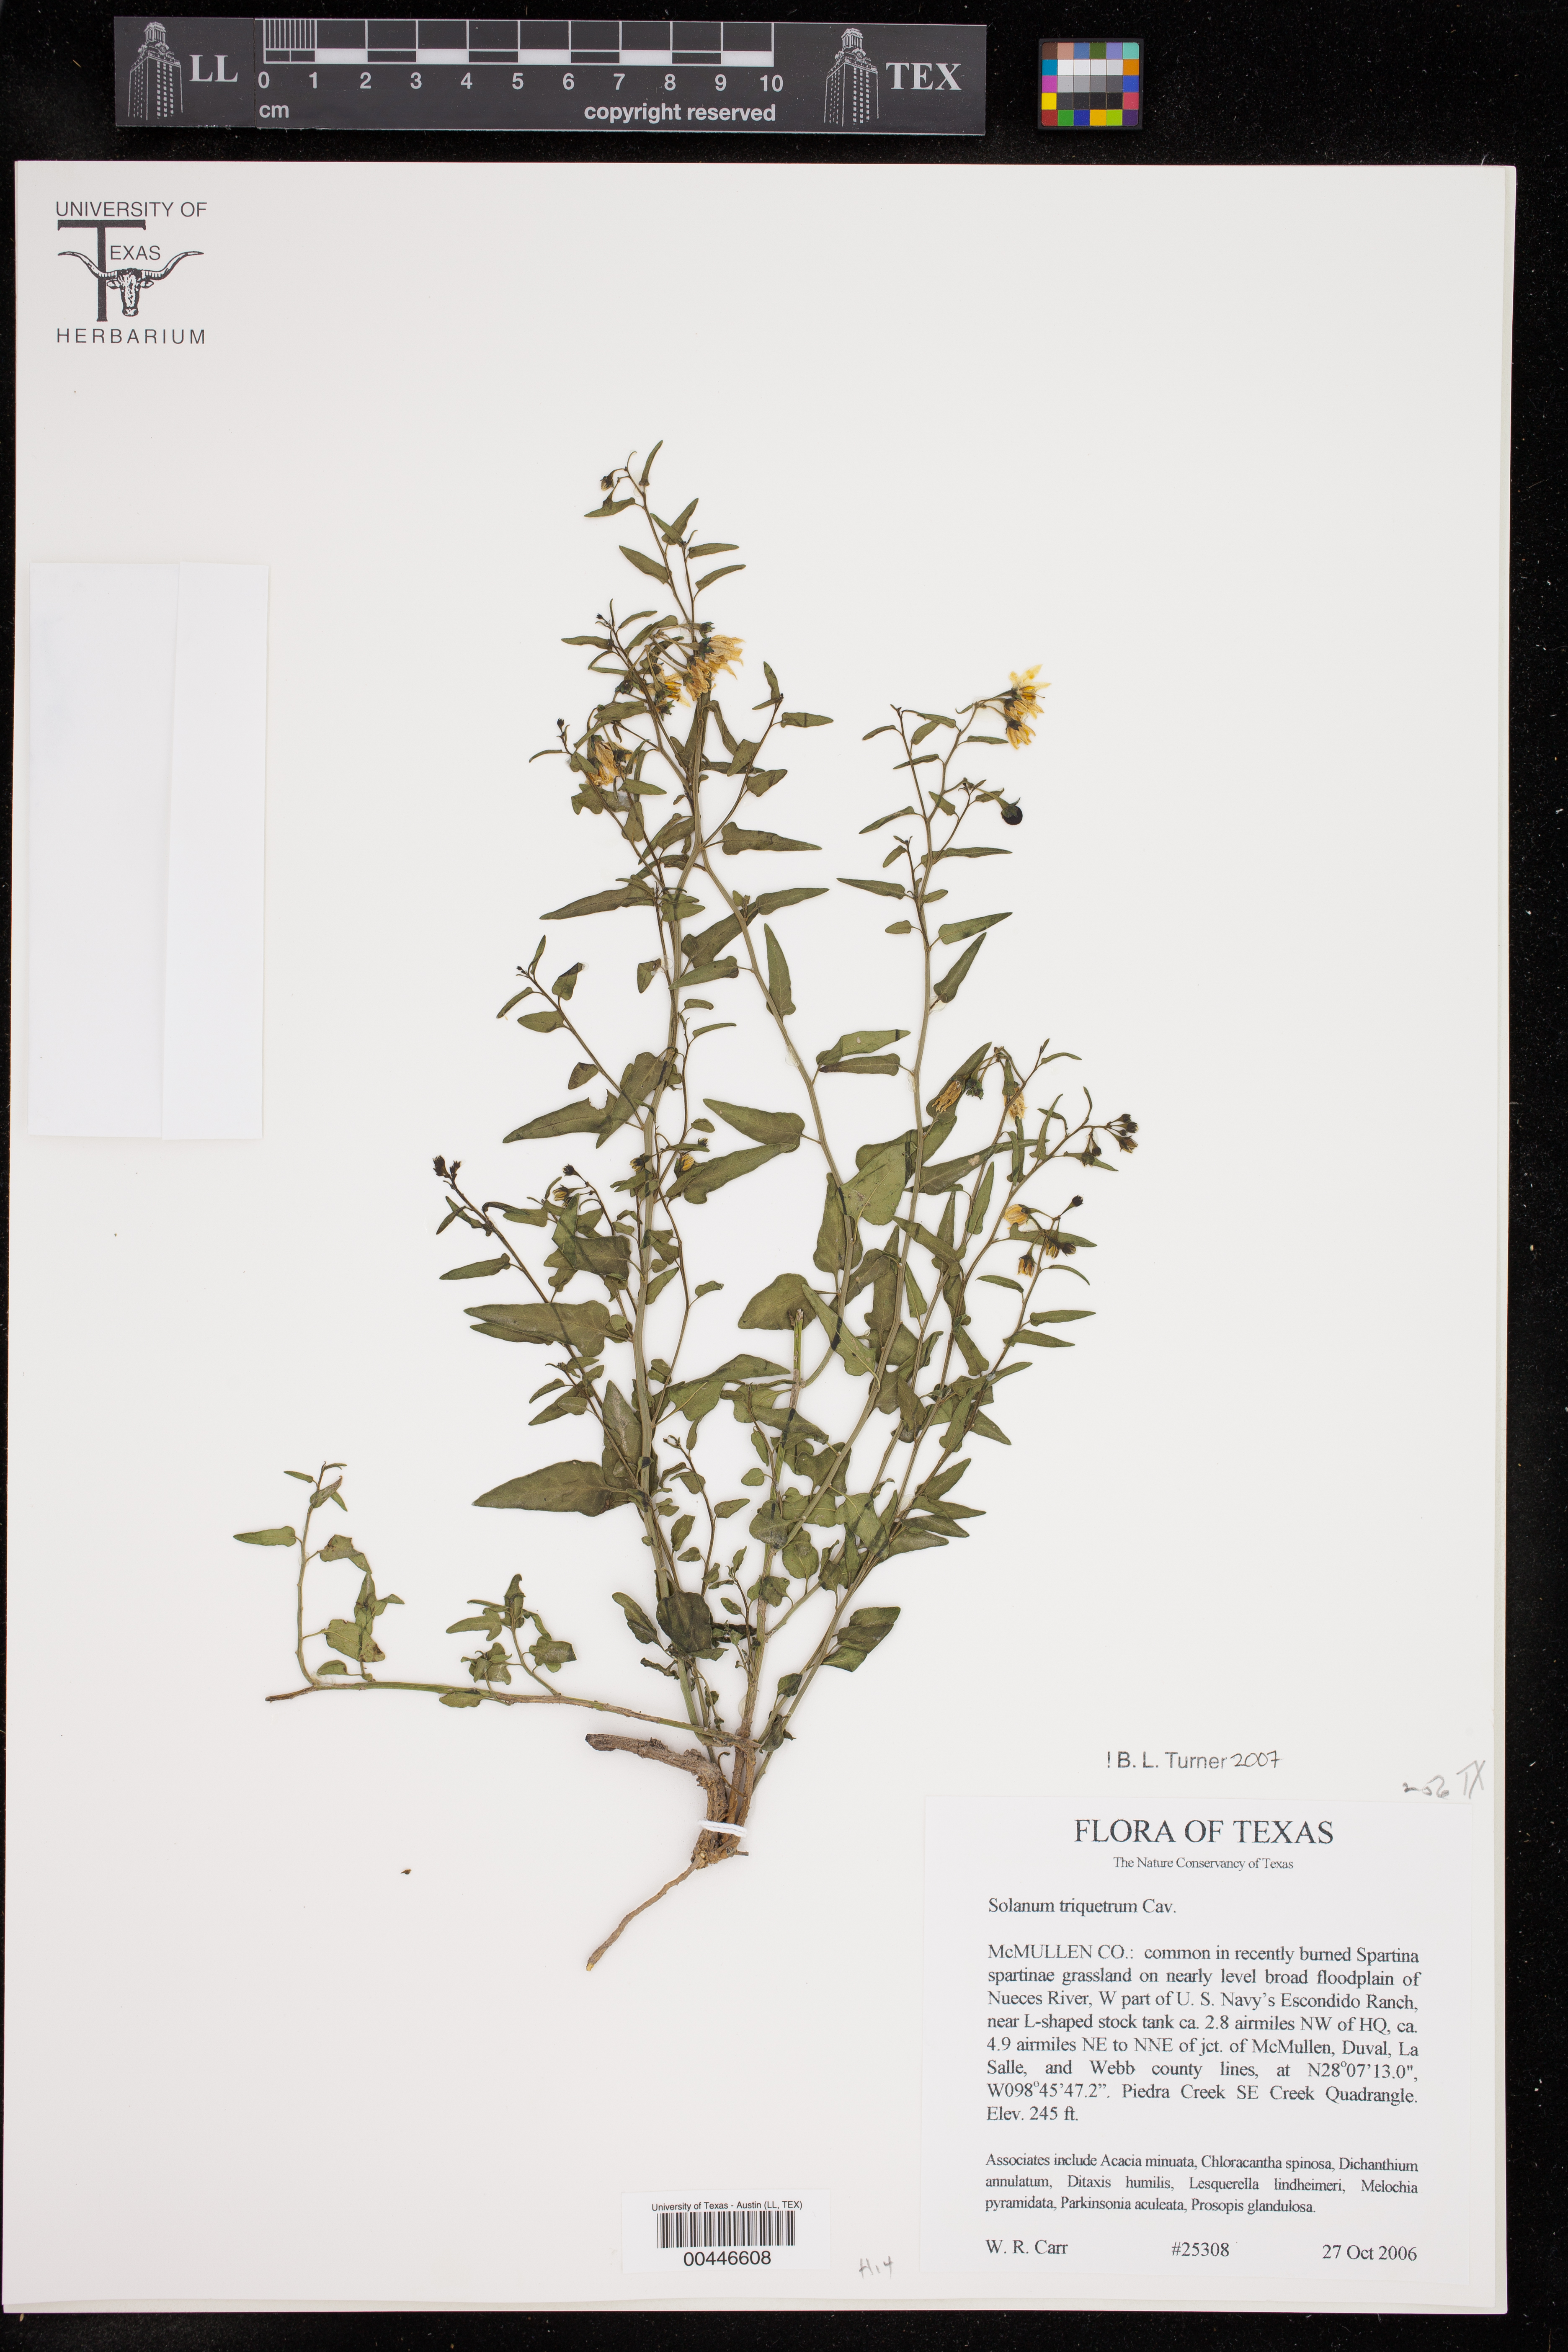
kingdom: Plantae
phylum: Tracheophyta
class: Magnoliopsida
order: Solanales
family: Solanaceae
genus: Solanum
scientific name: Solanum triquetrum
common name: Texas nightshade
